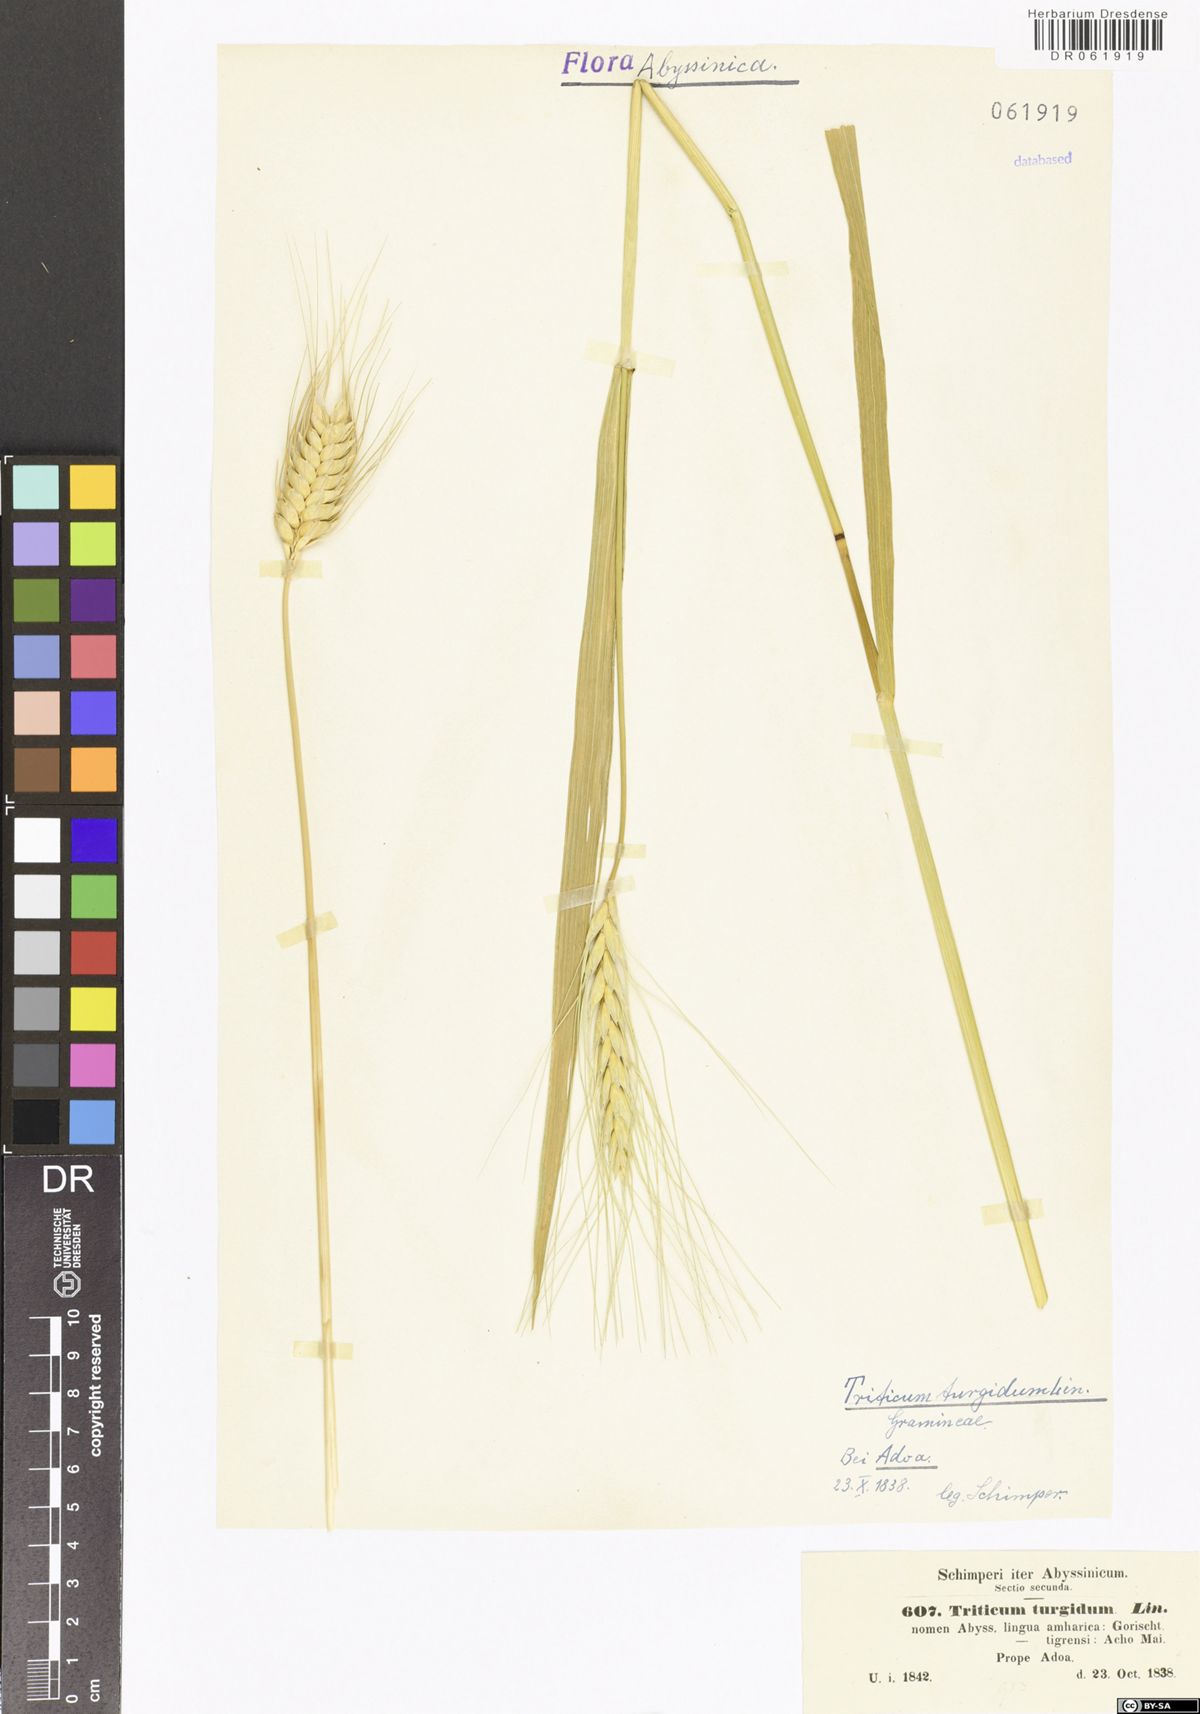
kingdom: Plantae
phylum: Tracheophyta
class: Liliopsida
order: Poales
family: Poaceae
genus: Triticum
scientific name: Triticum turgidum
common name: Rivet wheat
